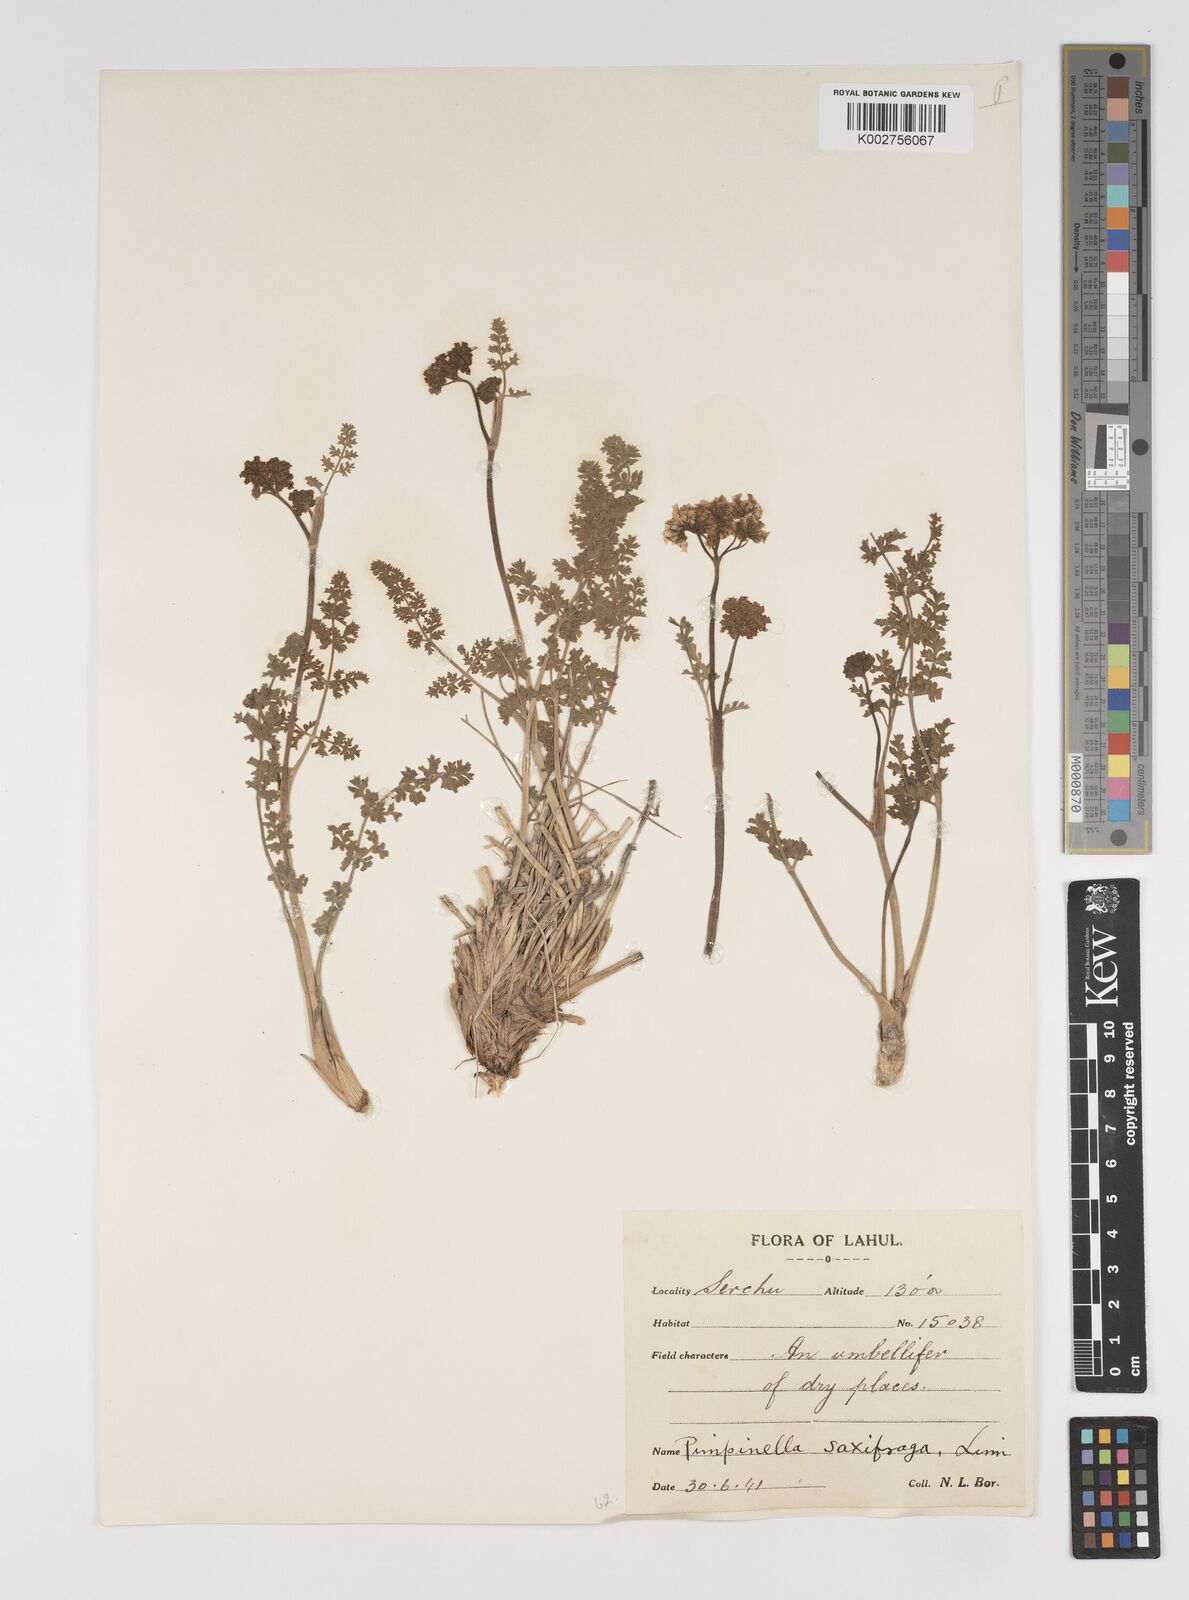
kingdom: Plantae
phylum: Tracheophyta
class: Magnoliopsida
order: Apiales
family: Apiaceae
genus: Pimpinella
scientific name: Pimpinella diversifolia
